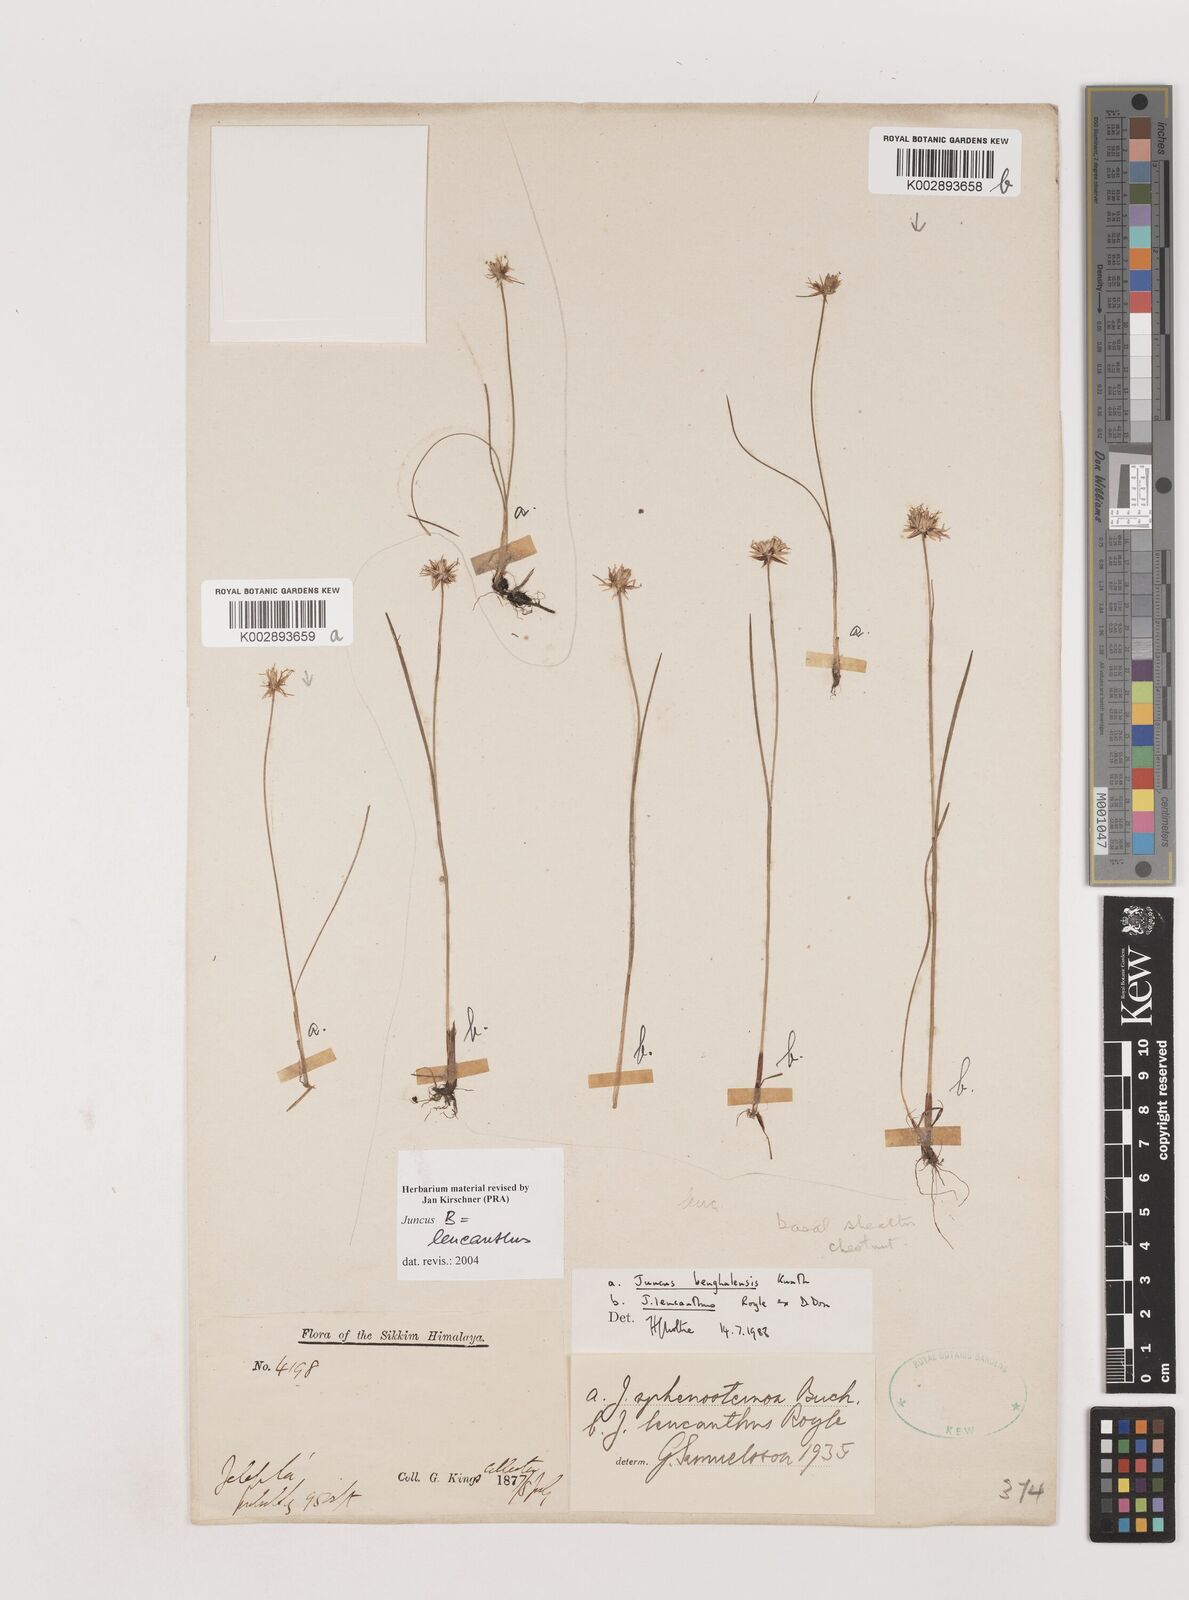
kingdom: Plantae
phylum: Tracheophyta
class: Liliopsida
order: Poales
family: Juncaceae
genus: Juncus
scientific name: Juncus leucanthus
